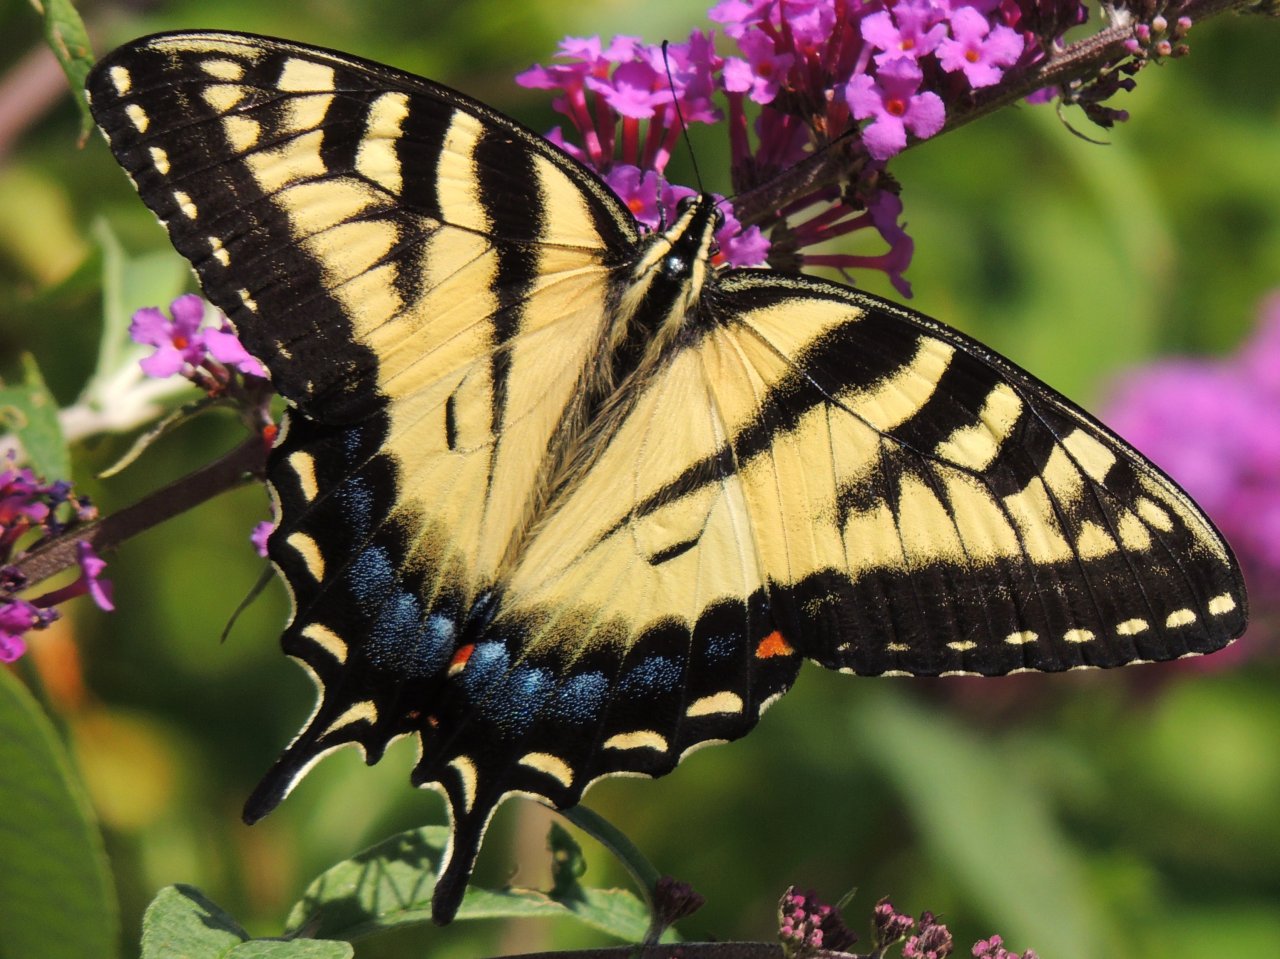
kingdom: Animalia
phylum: Arthropoda
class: Insecta
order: Lepidoptera
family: Papilionidae
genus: Pterourus
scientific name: Pterourus glaucus
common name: Eastern Tiger Swallowtail
